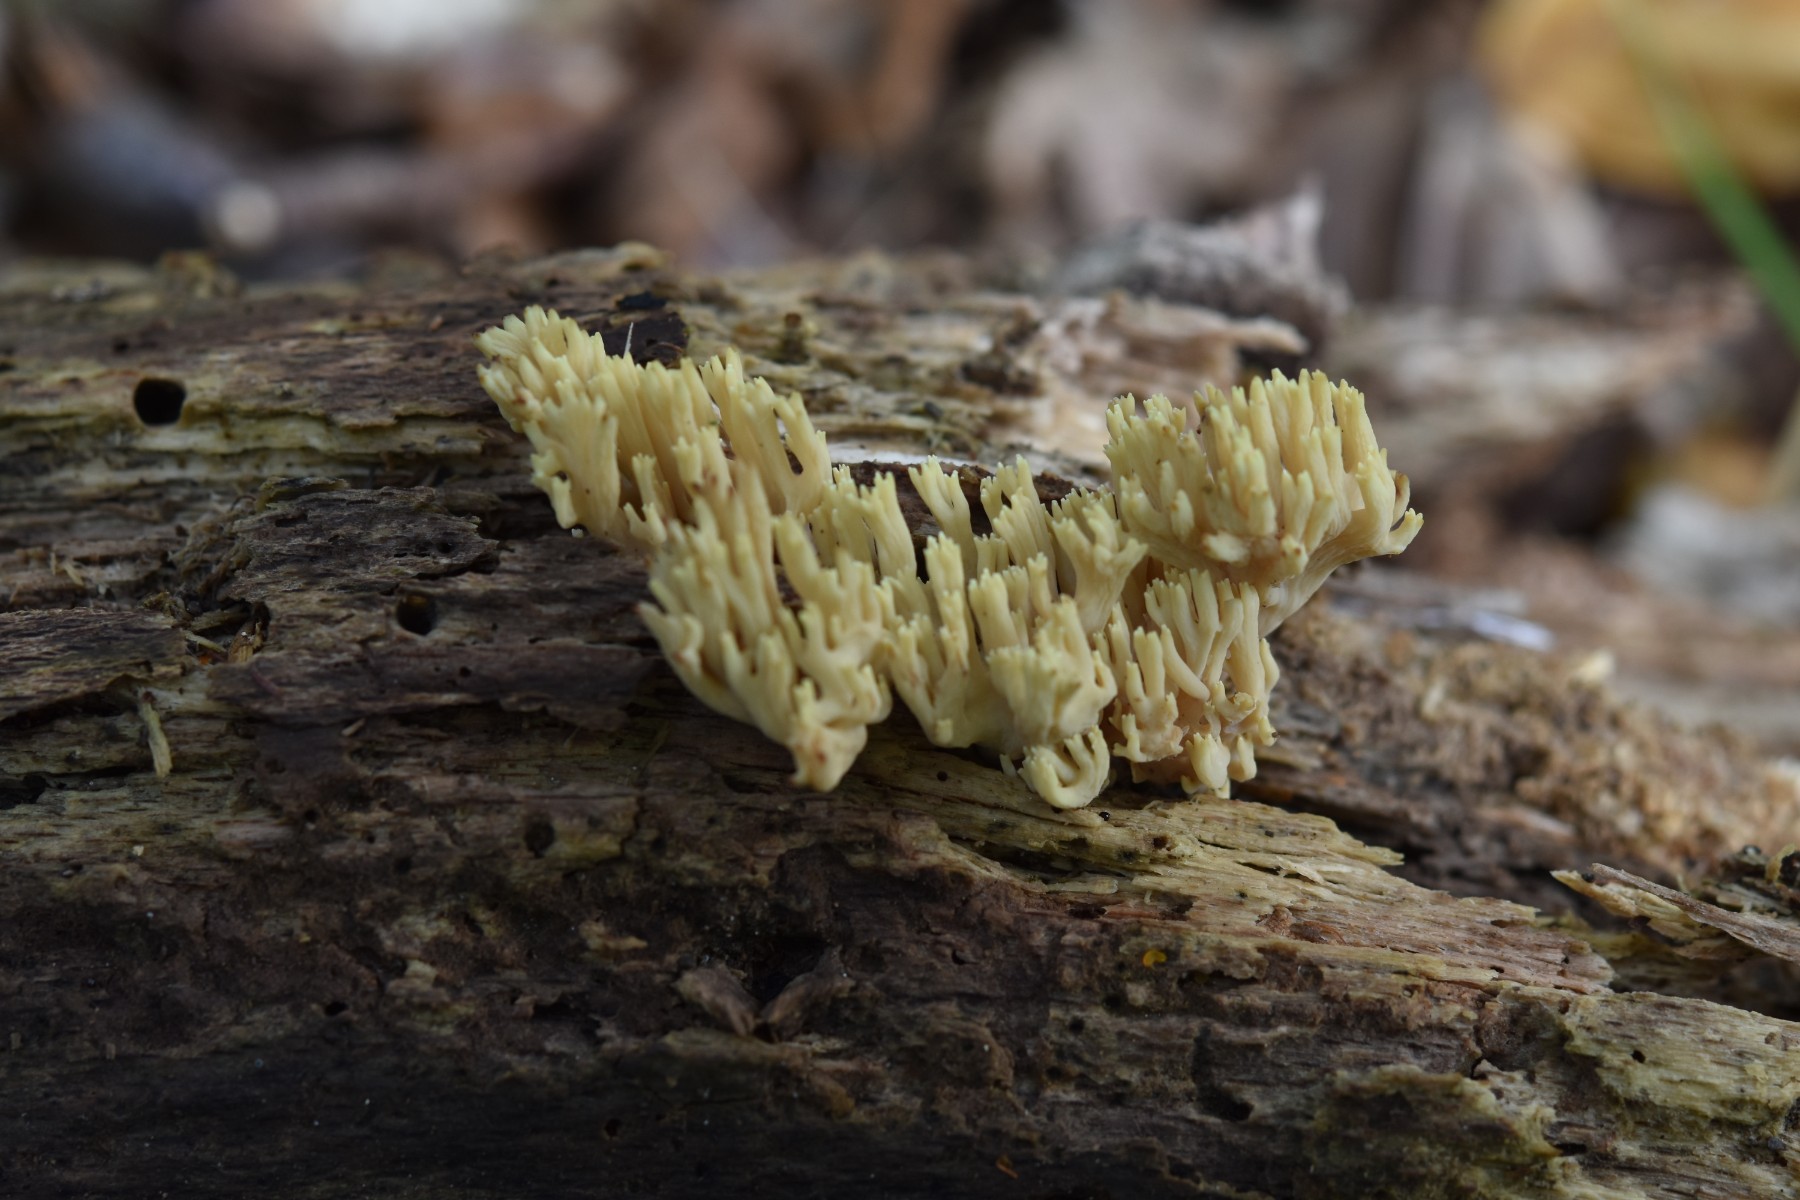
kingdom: Fungi
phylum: Basidiomycota
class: Agaricomycetes
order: Gomphales
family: Gomphaceae
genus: Ramaria
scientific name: Ramaria stricta
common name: rank koralsvamp
